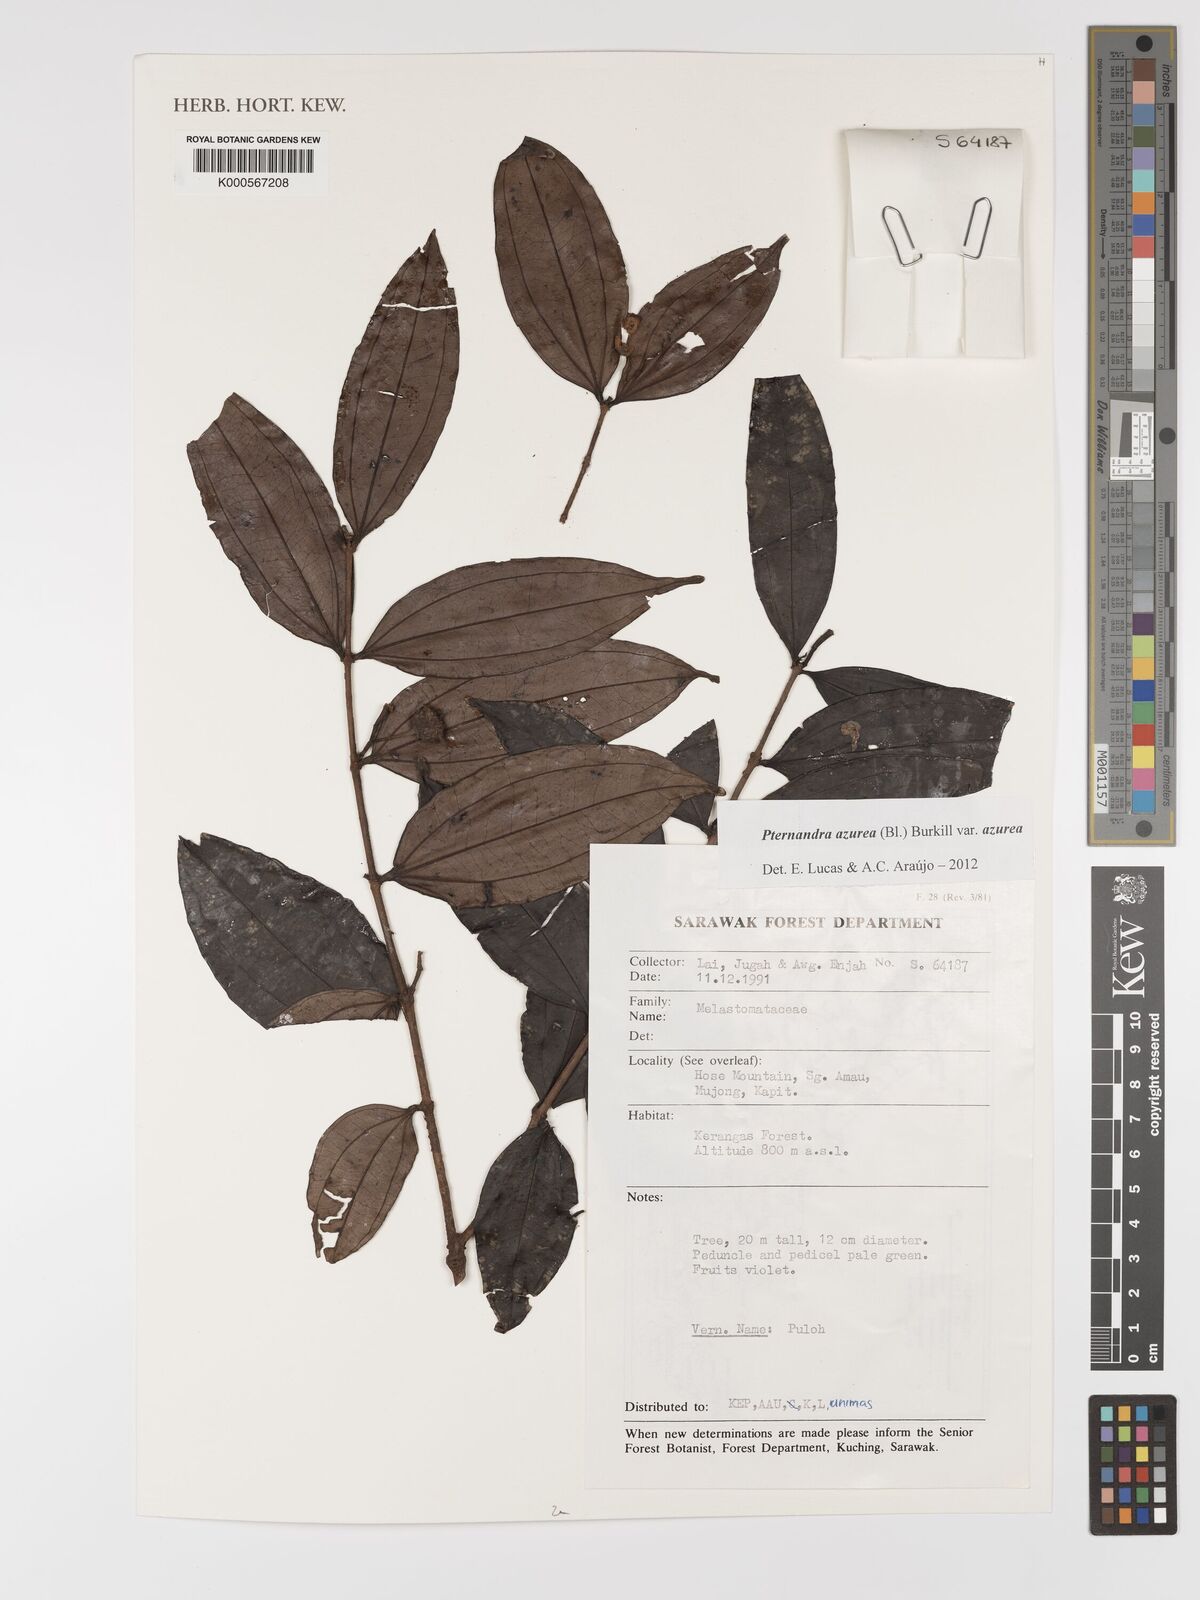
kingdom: Plantae
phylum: Tracheophyta
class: Magnoliopsida
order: Myrtales
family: Melastomataceae
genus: Pternandra
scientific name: Pternandra azurea
